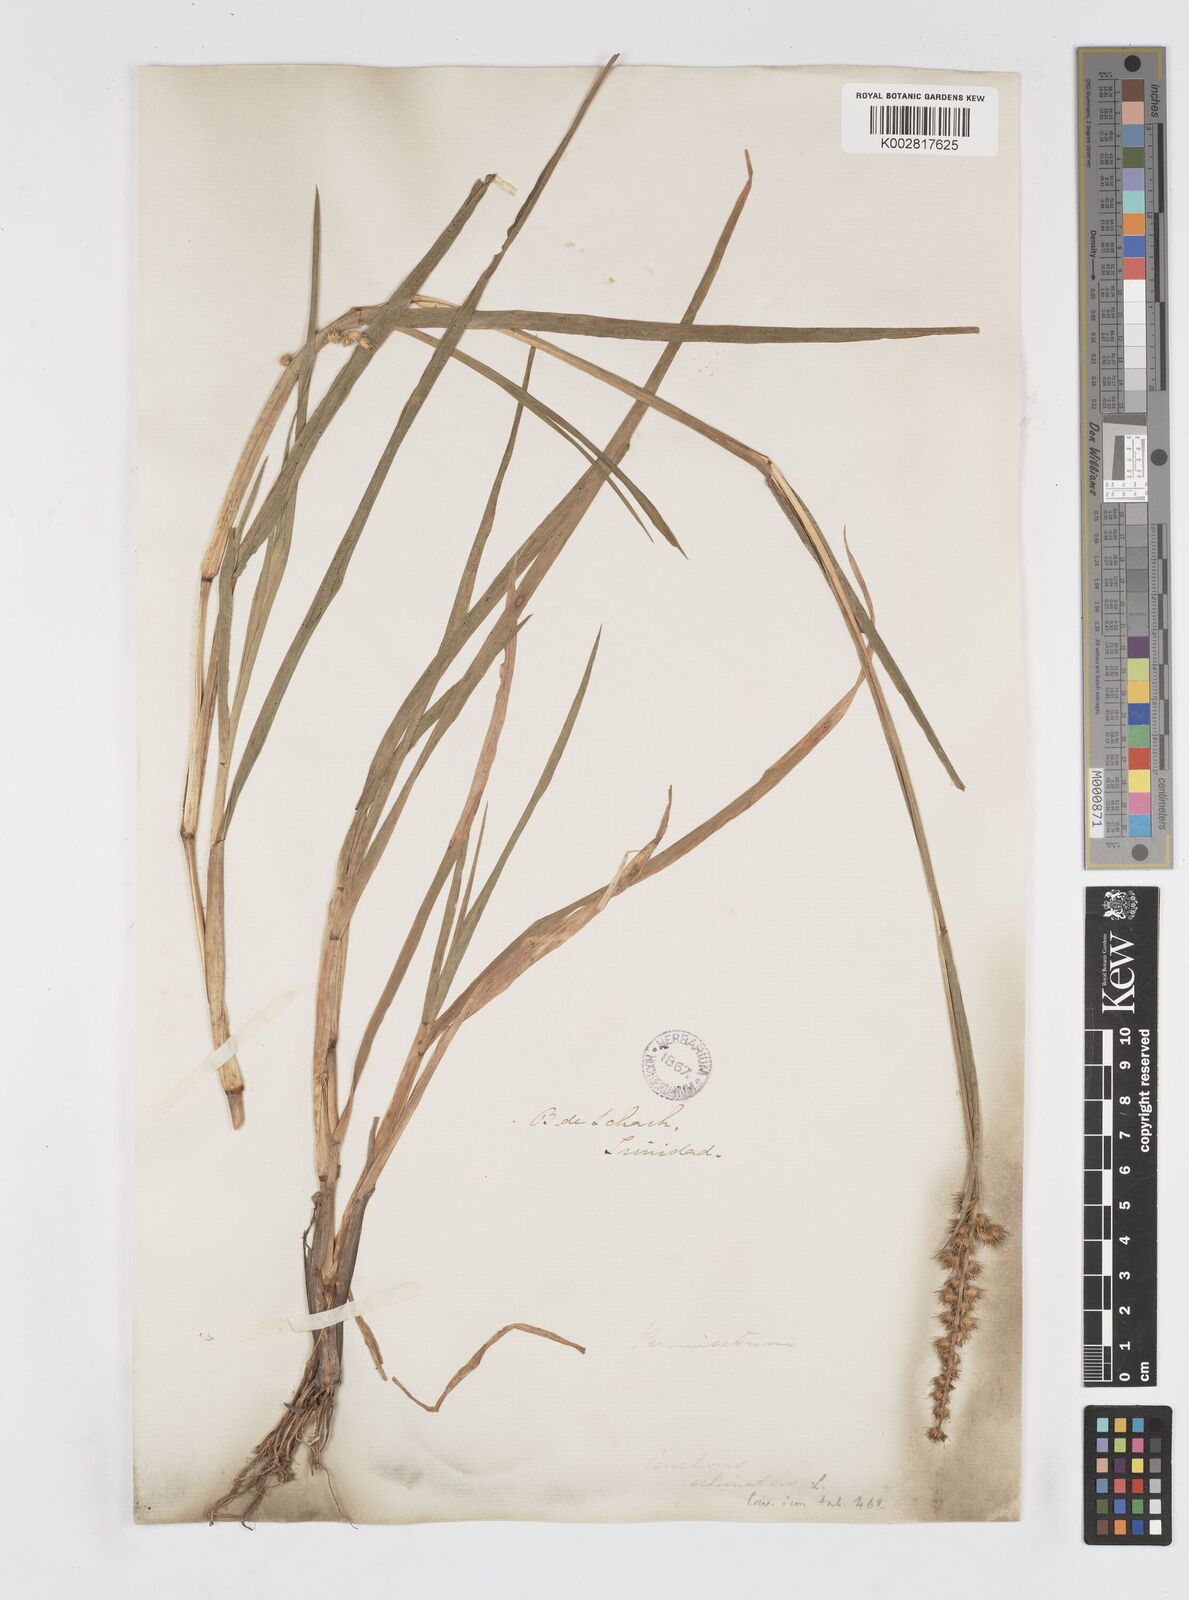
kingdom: Plantae
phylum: Tracheophyta
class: Liliopsida
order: Poales
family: Poaceae
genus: Cenchrus
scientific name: Cenchrus brownii
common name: Slim-bristle sandbur
